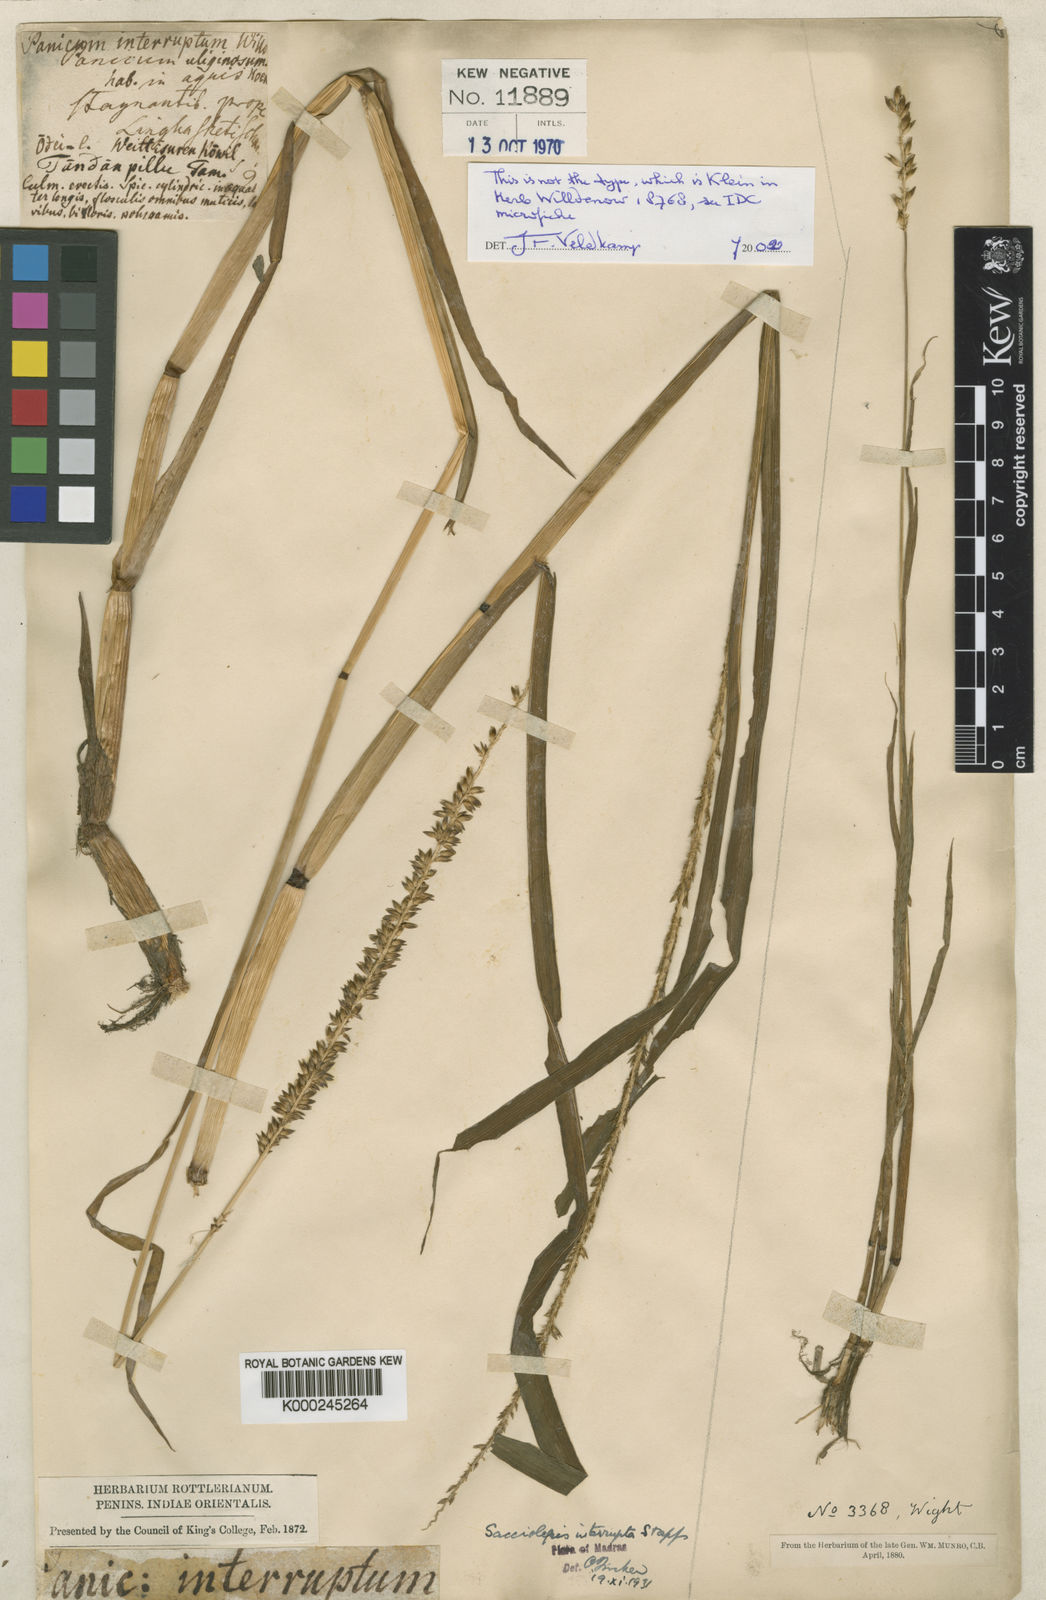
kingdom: Plantae
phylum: Tracheophyta
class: Liliopsida
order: Poales
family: Poaceae
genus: Sacciolepis
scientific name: Sacciolepis interrupta
